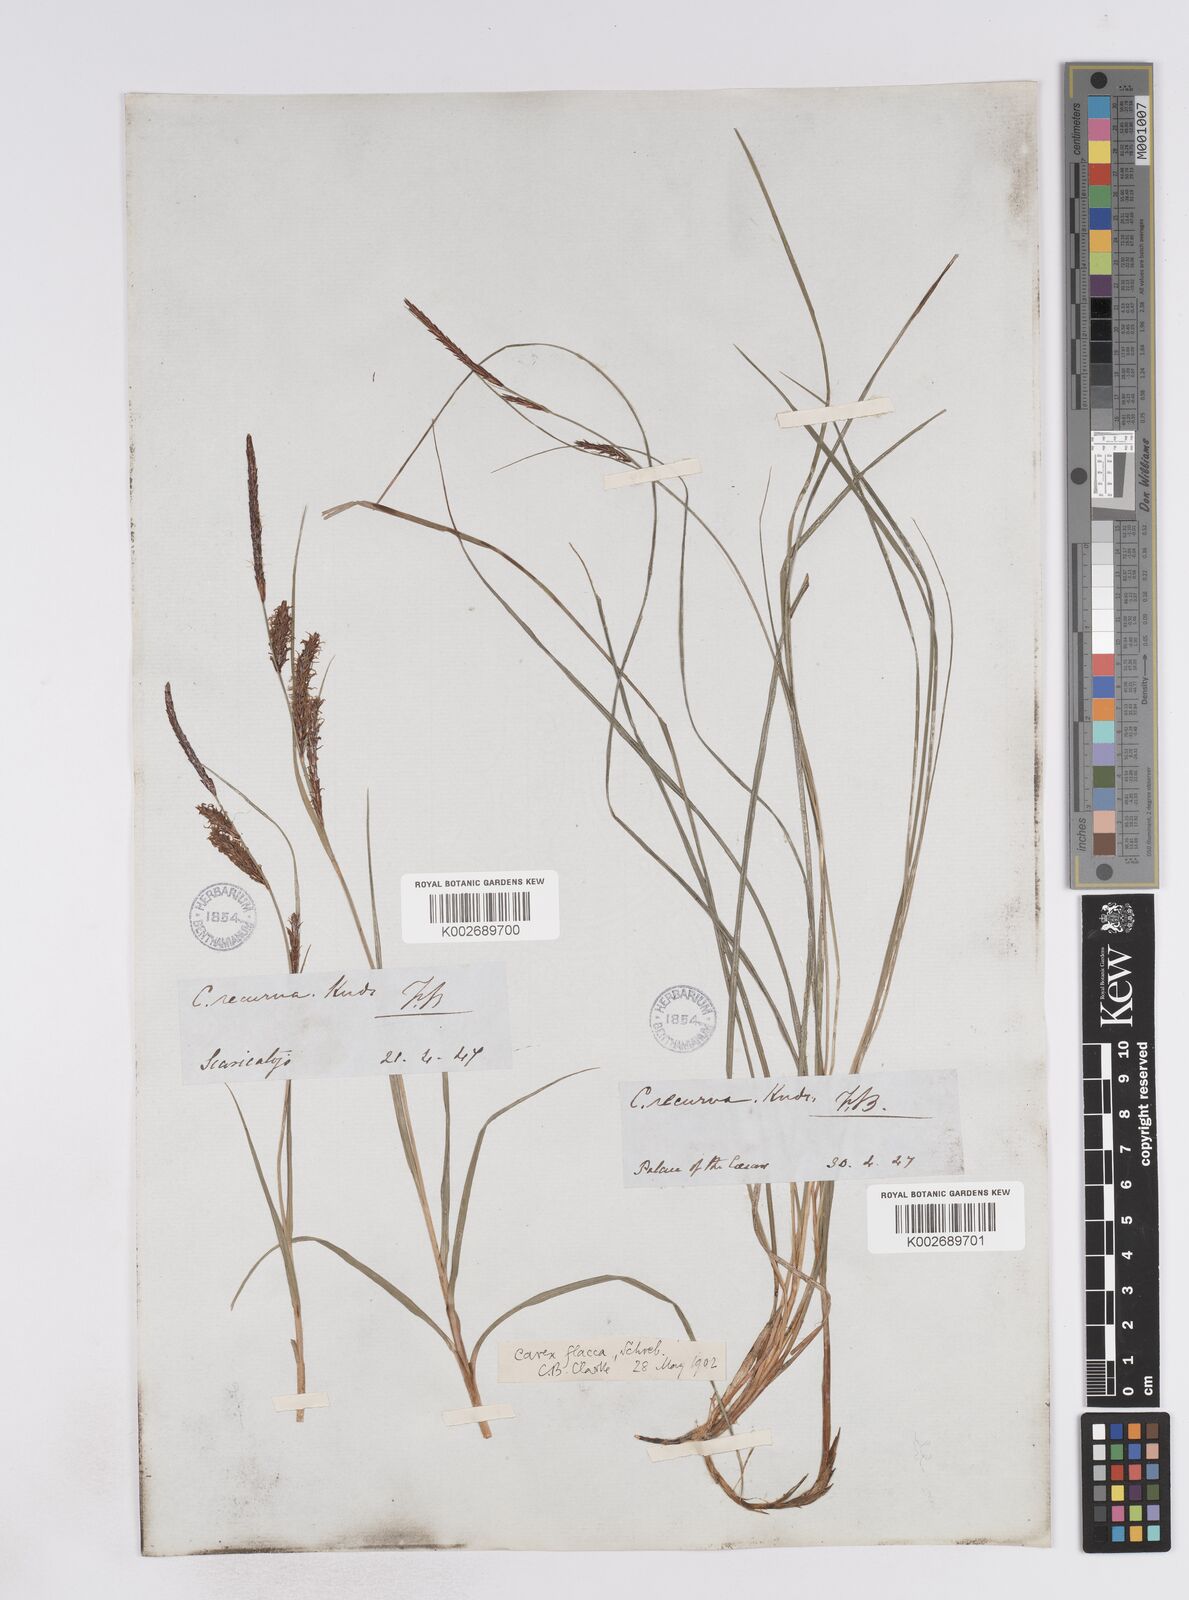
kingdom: Plantae
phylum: Tracheophyta
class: Liliopsida
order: Poales
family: Cyperaceae
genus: Carex
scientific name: Carex flacca
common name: Glaucous sedge
